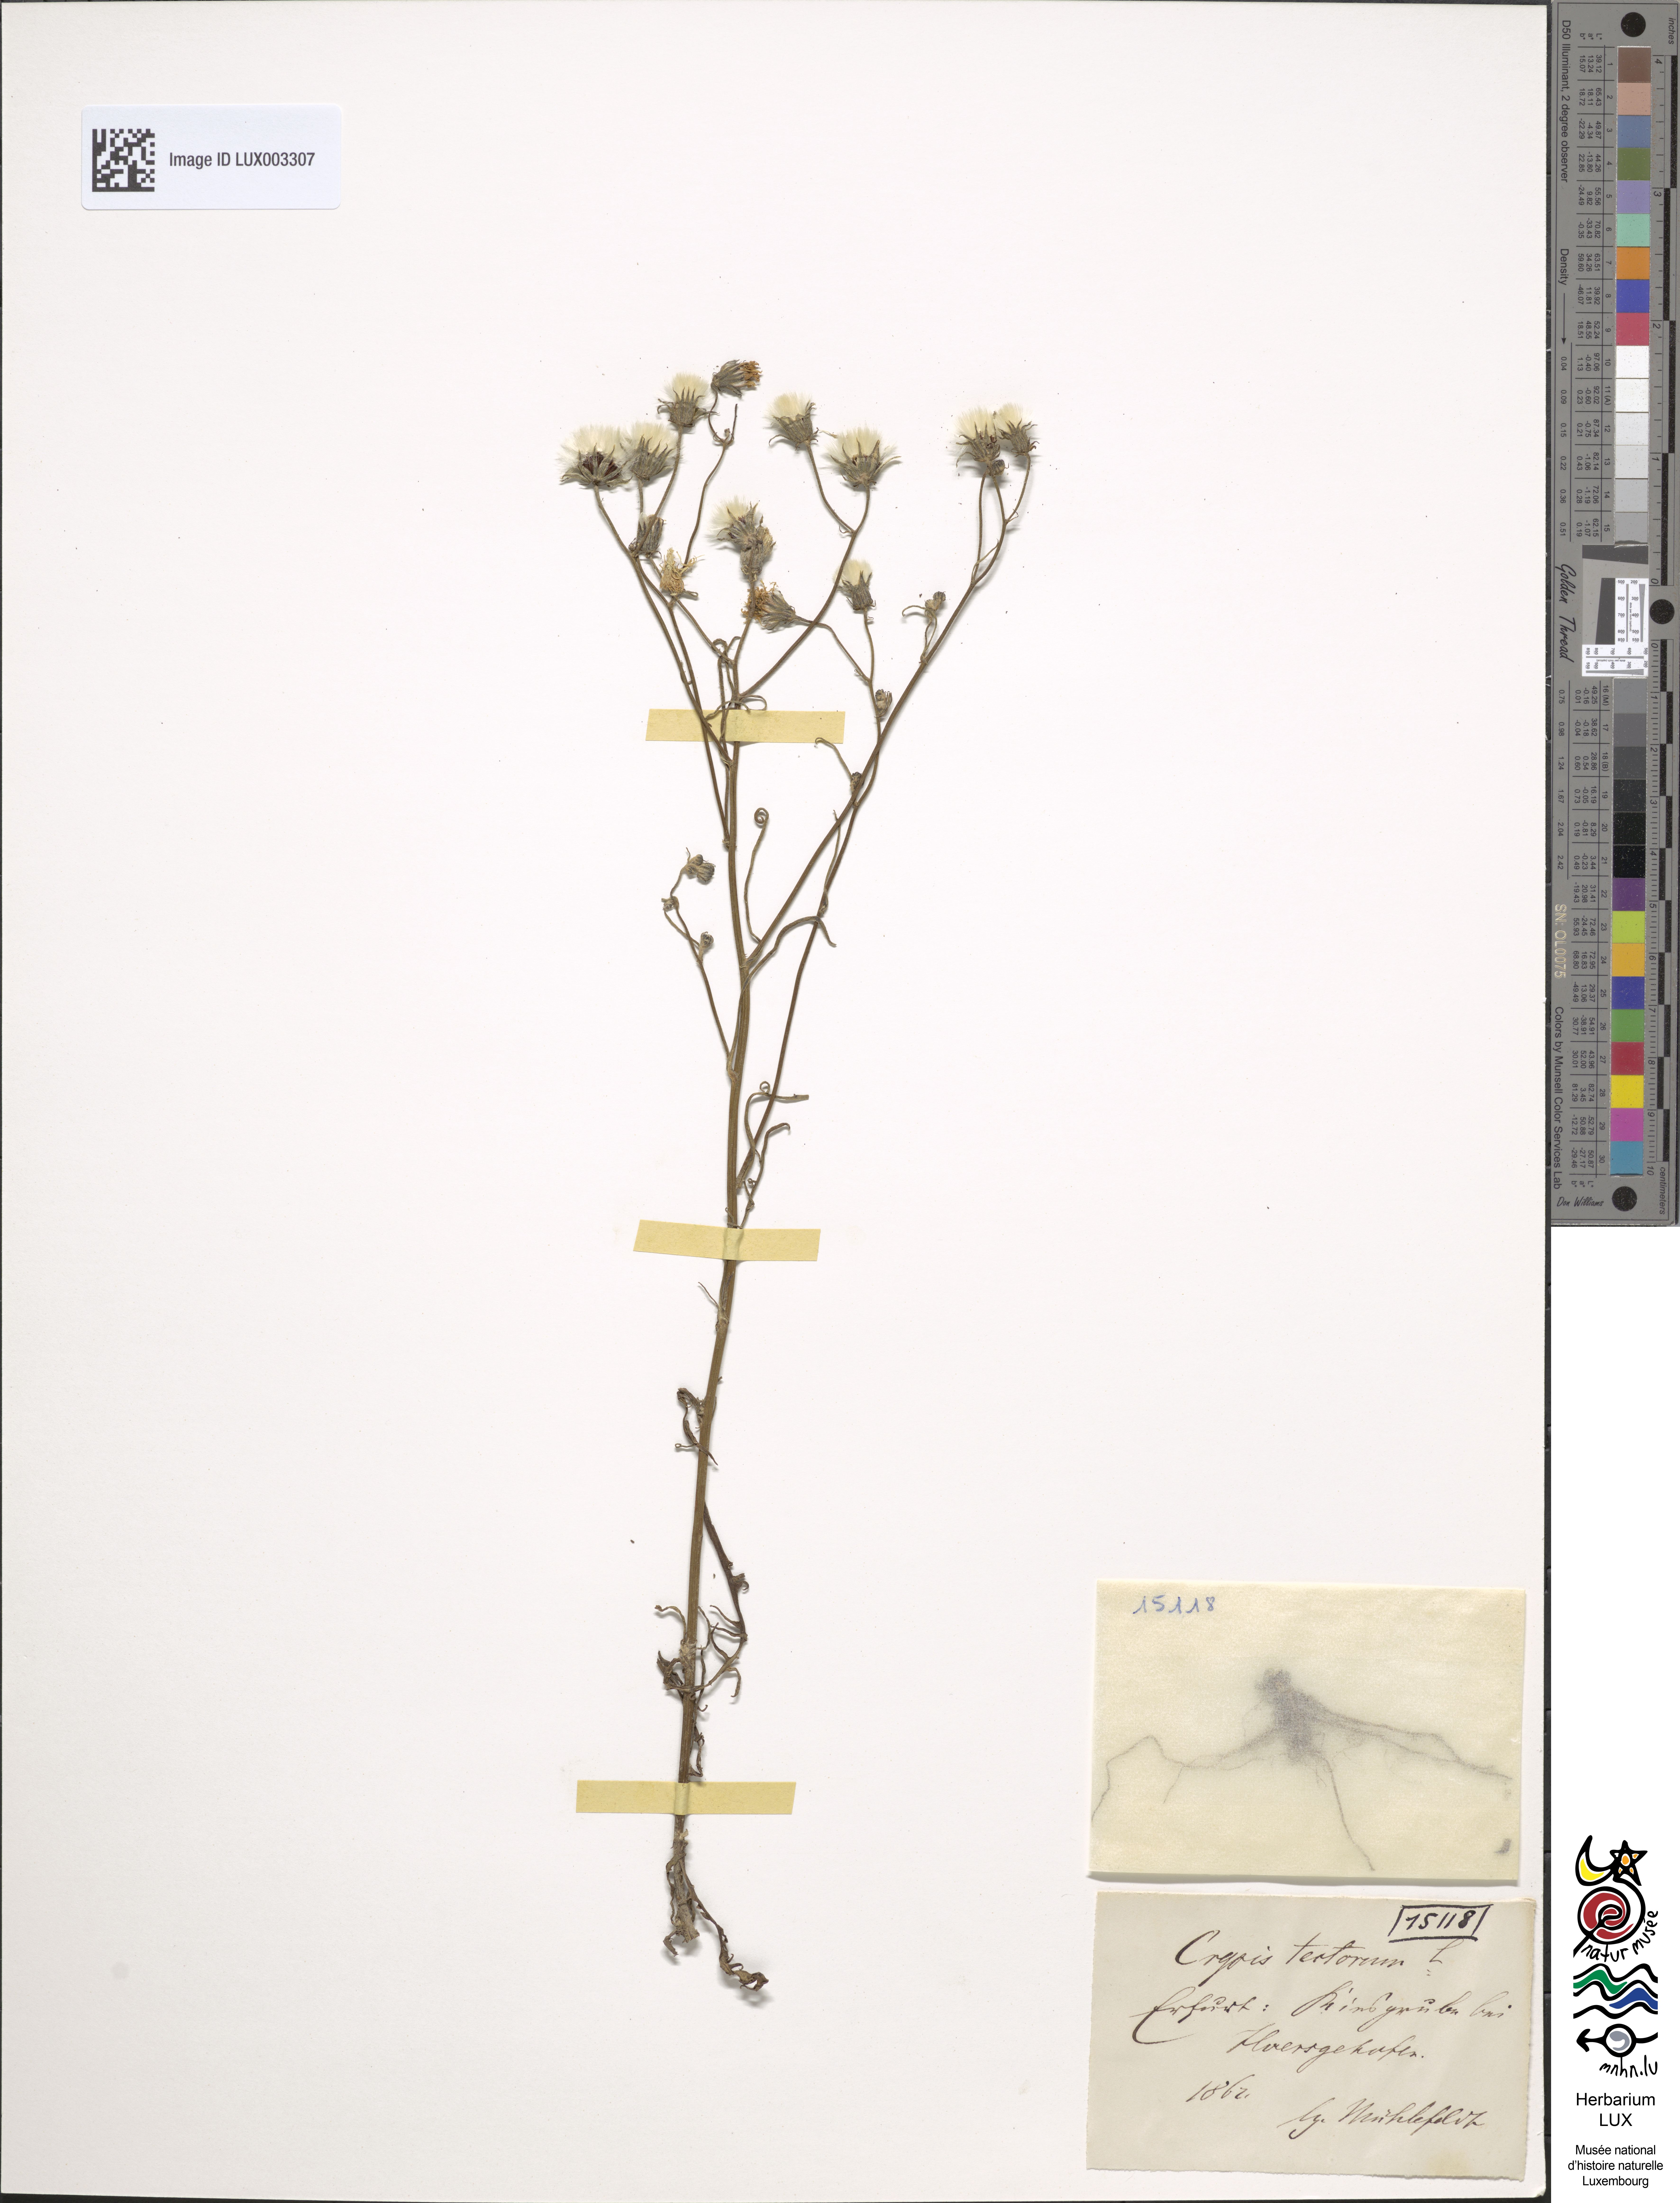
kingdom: Plantae
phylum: Tracheophyta
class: Magnoliopsida
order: Asterales
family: Asteraceae
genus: Crepis
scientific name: Crepis tectorum
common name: Narrow-leaved hawk's-beard
